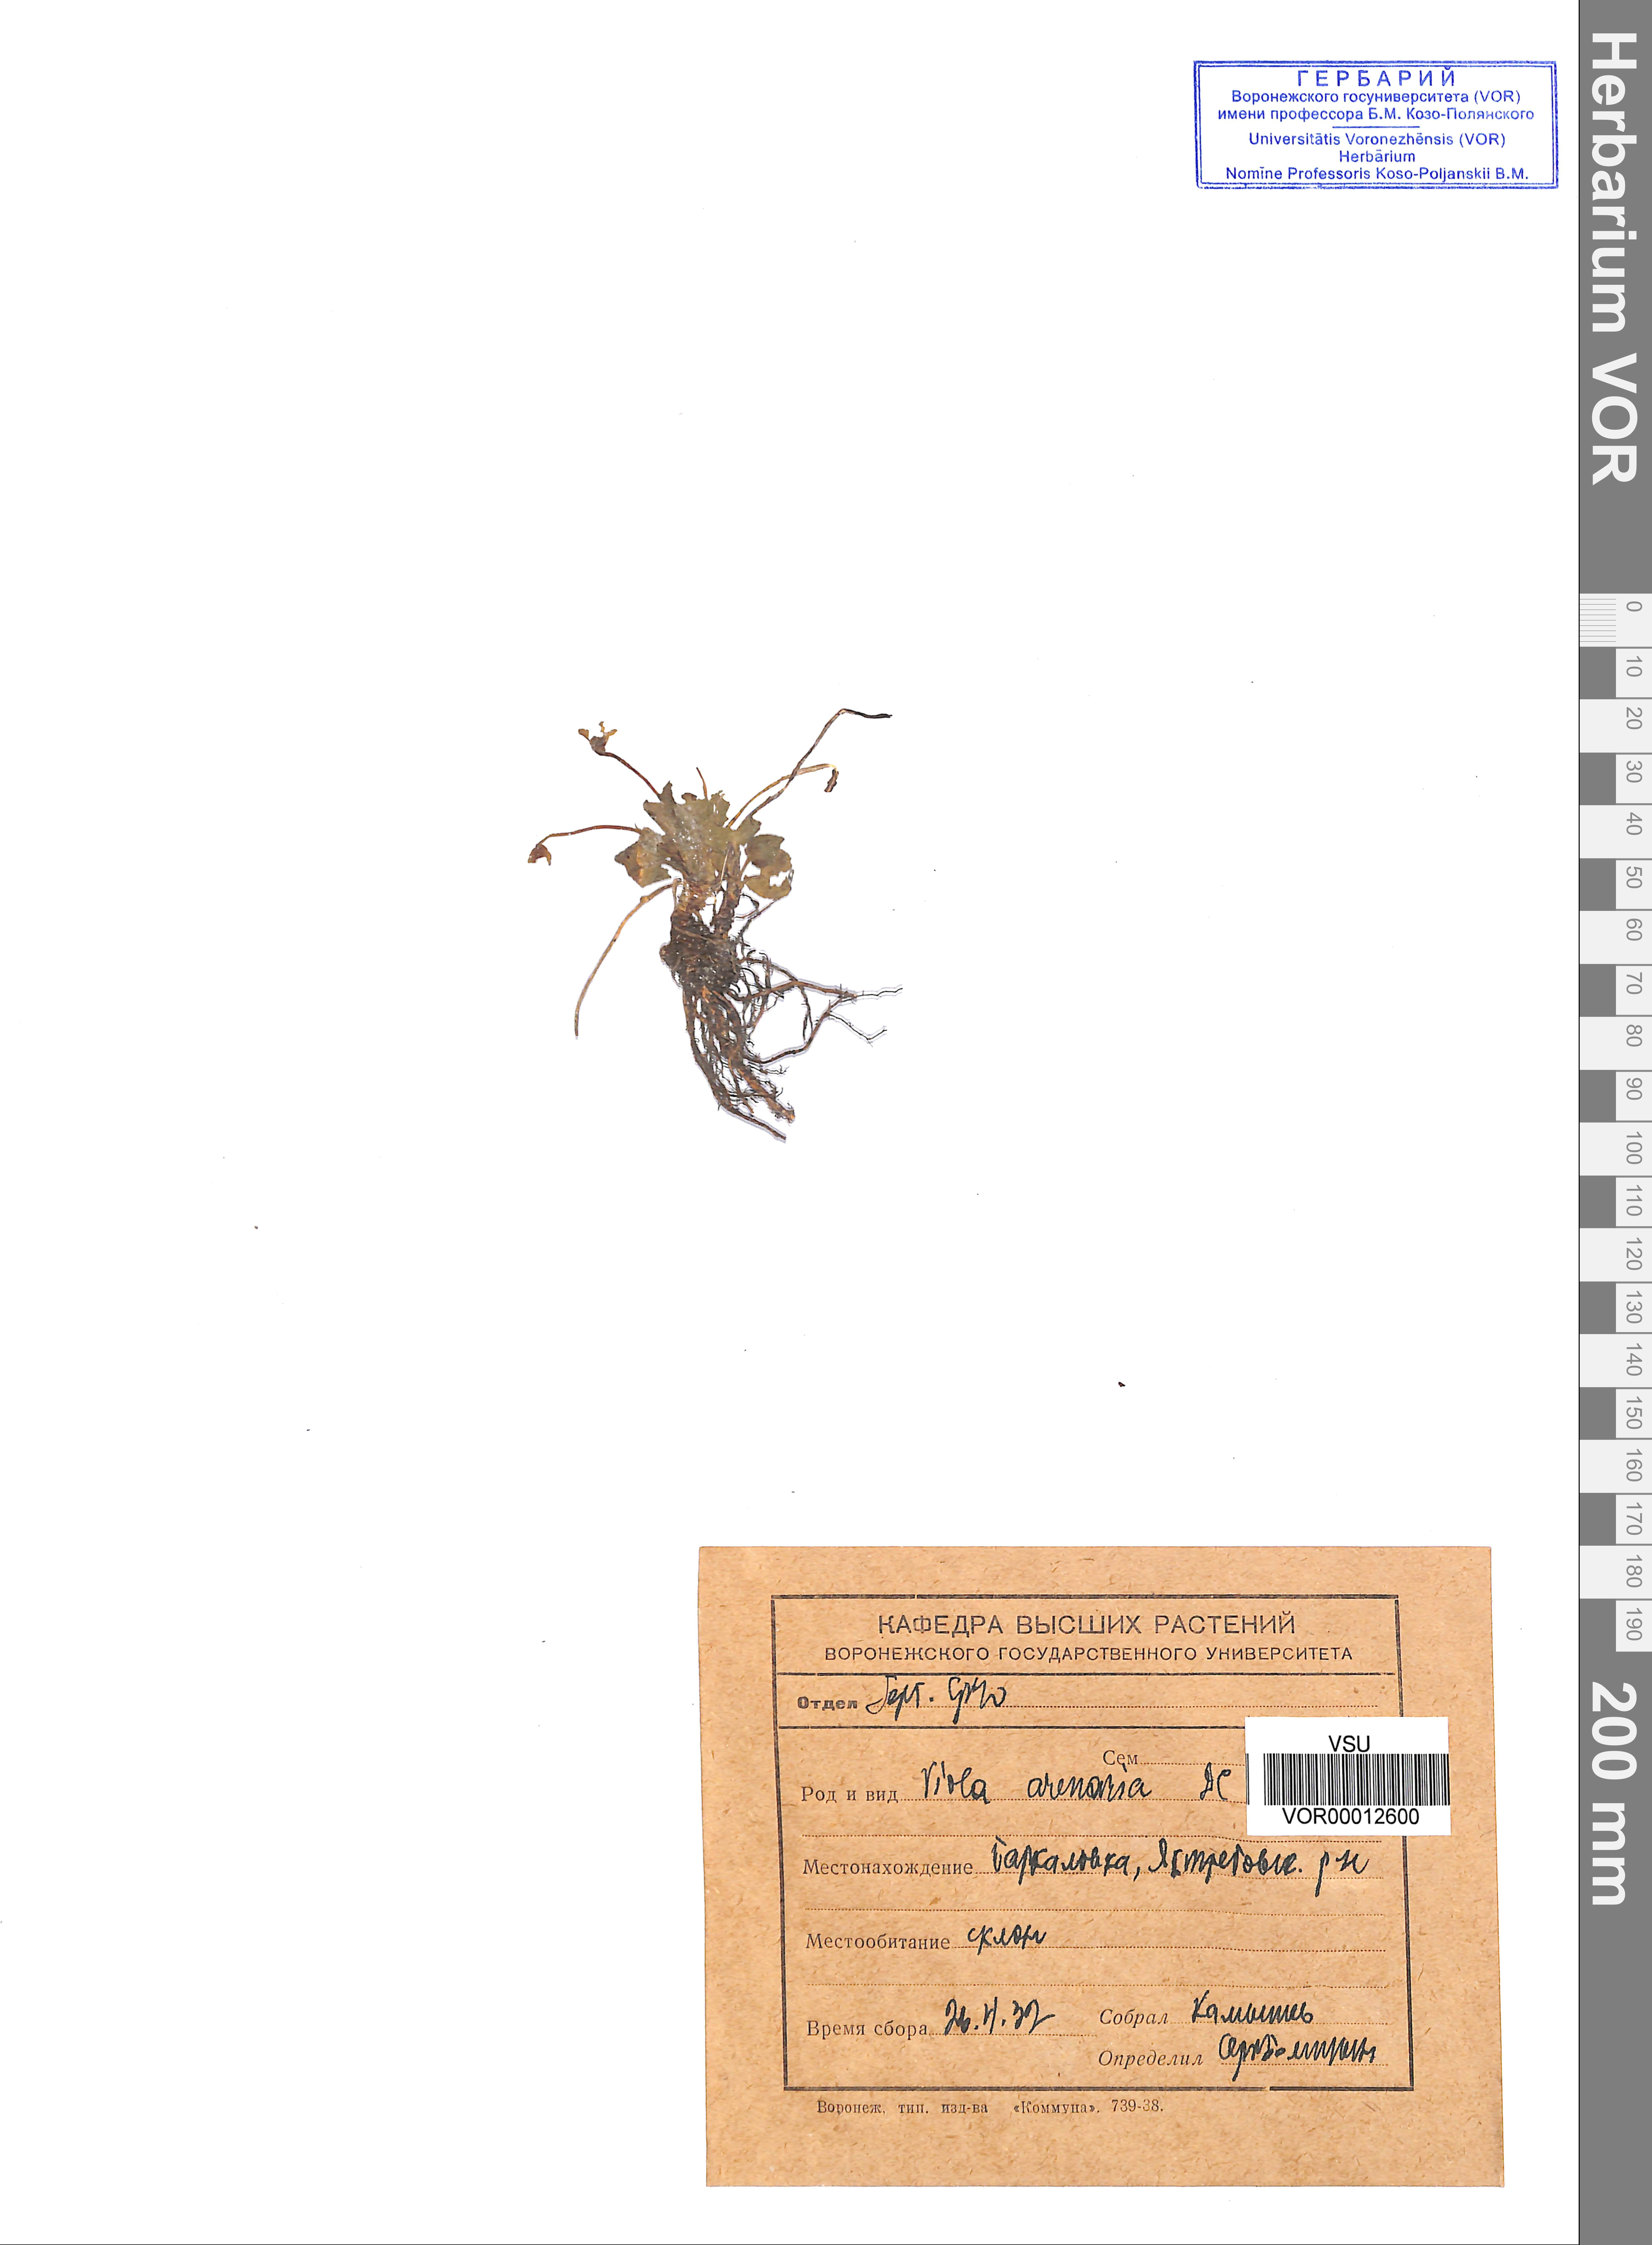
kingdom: Plantae
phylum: Tracheophyta
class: Magnoliopsida
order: Malpighiales
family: Violaceae
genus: Viola
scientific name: Viola rupestris
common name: Teesdale violet
